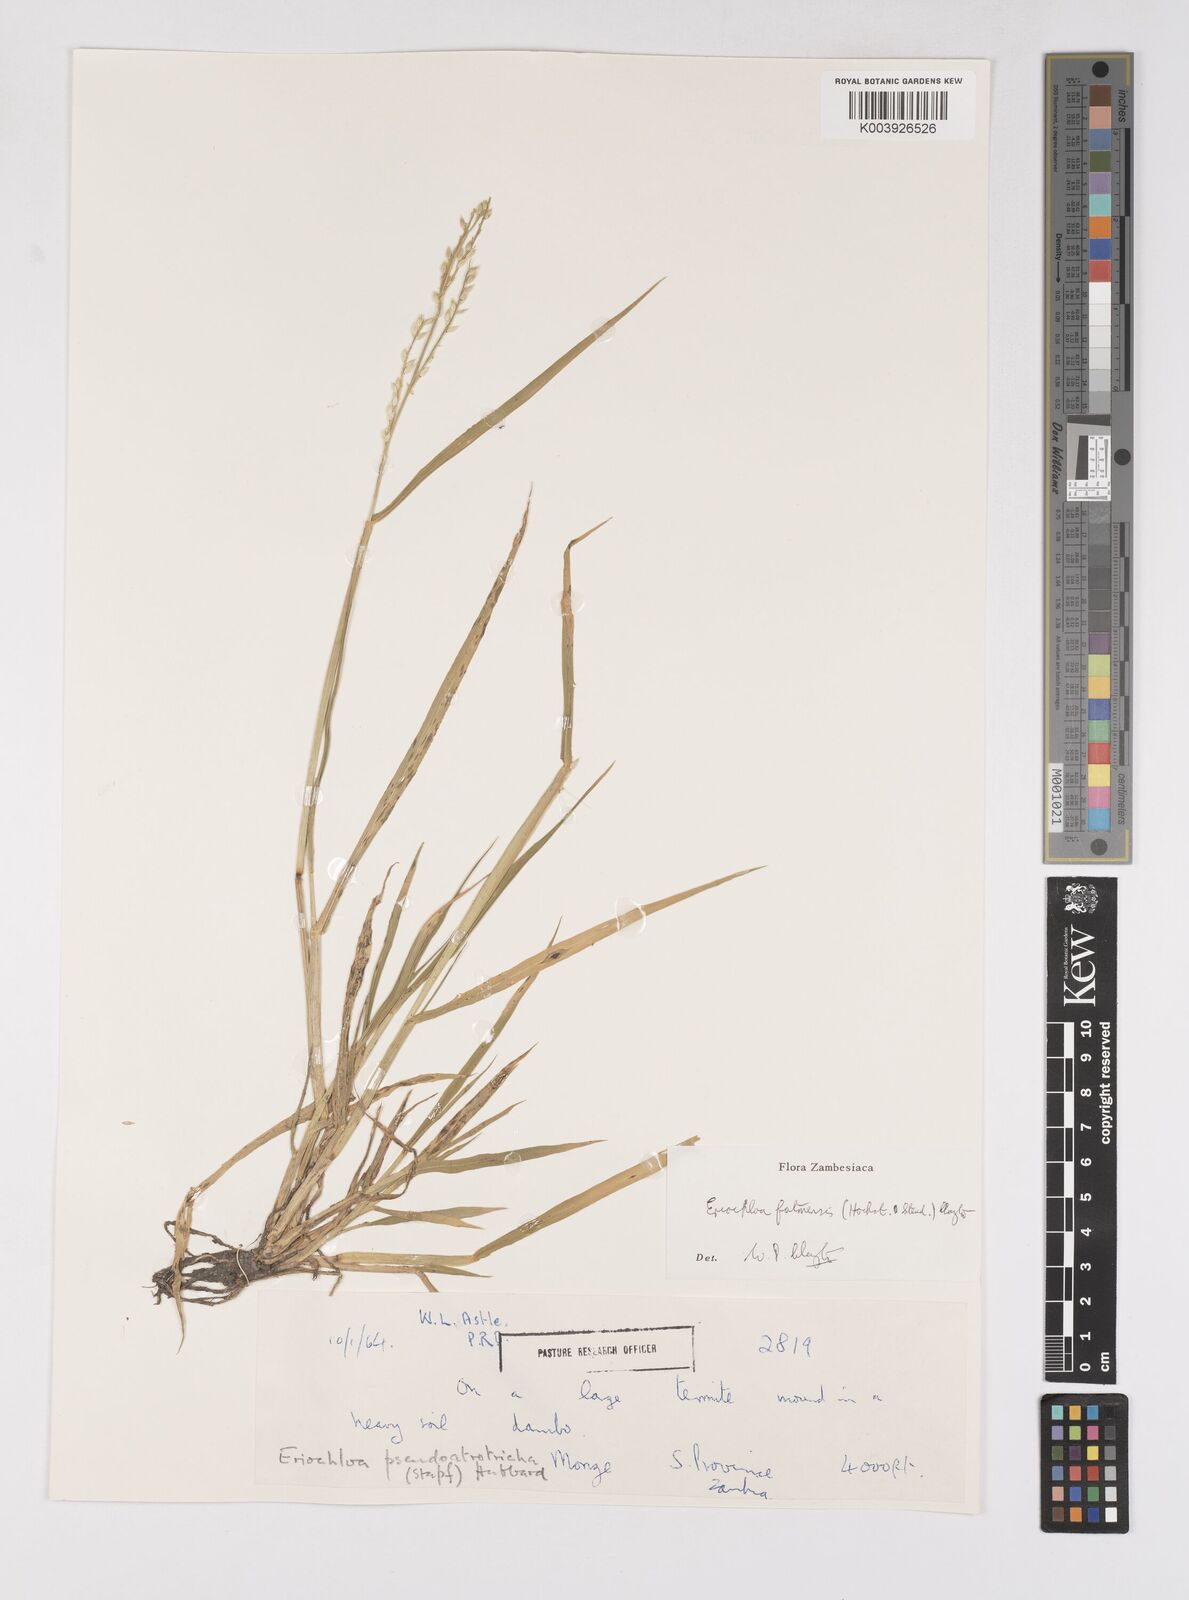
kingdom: Plantae
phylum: Tracheophyta
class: Liliopsida
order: Poales
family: Poaceae
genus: Eriochloa
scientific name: Eriochloa barbatus
